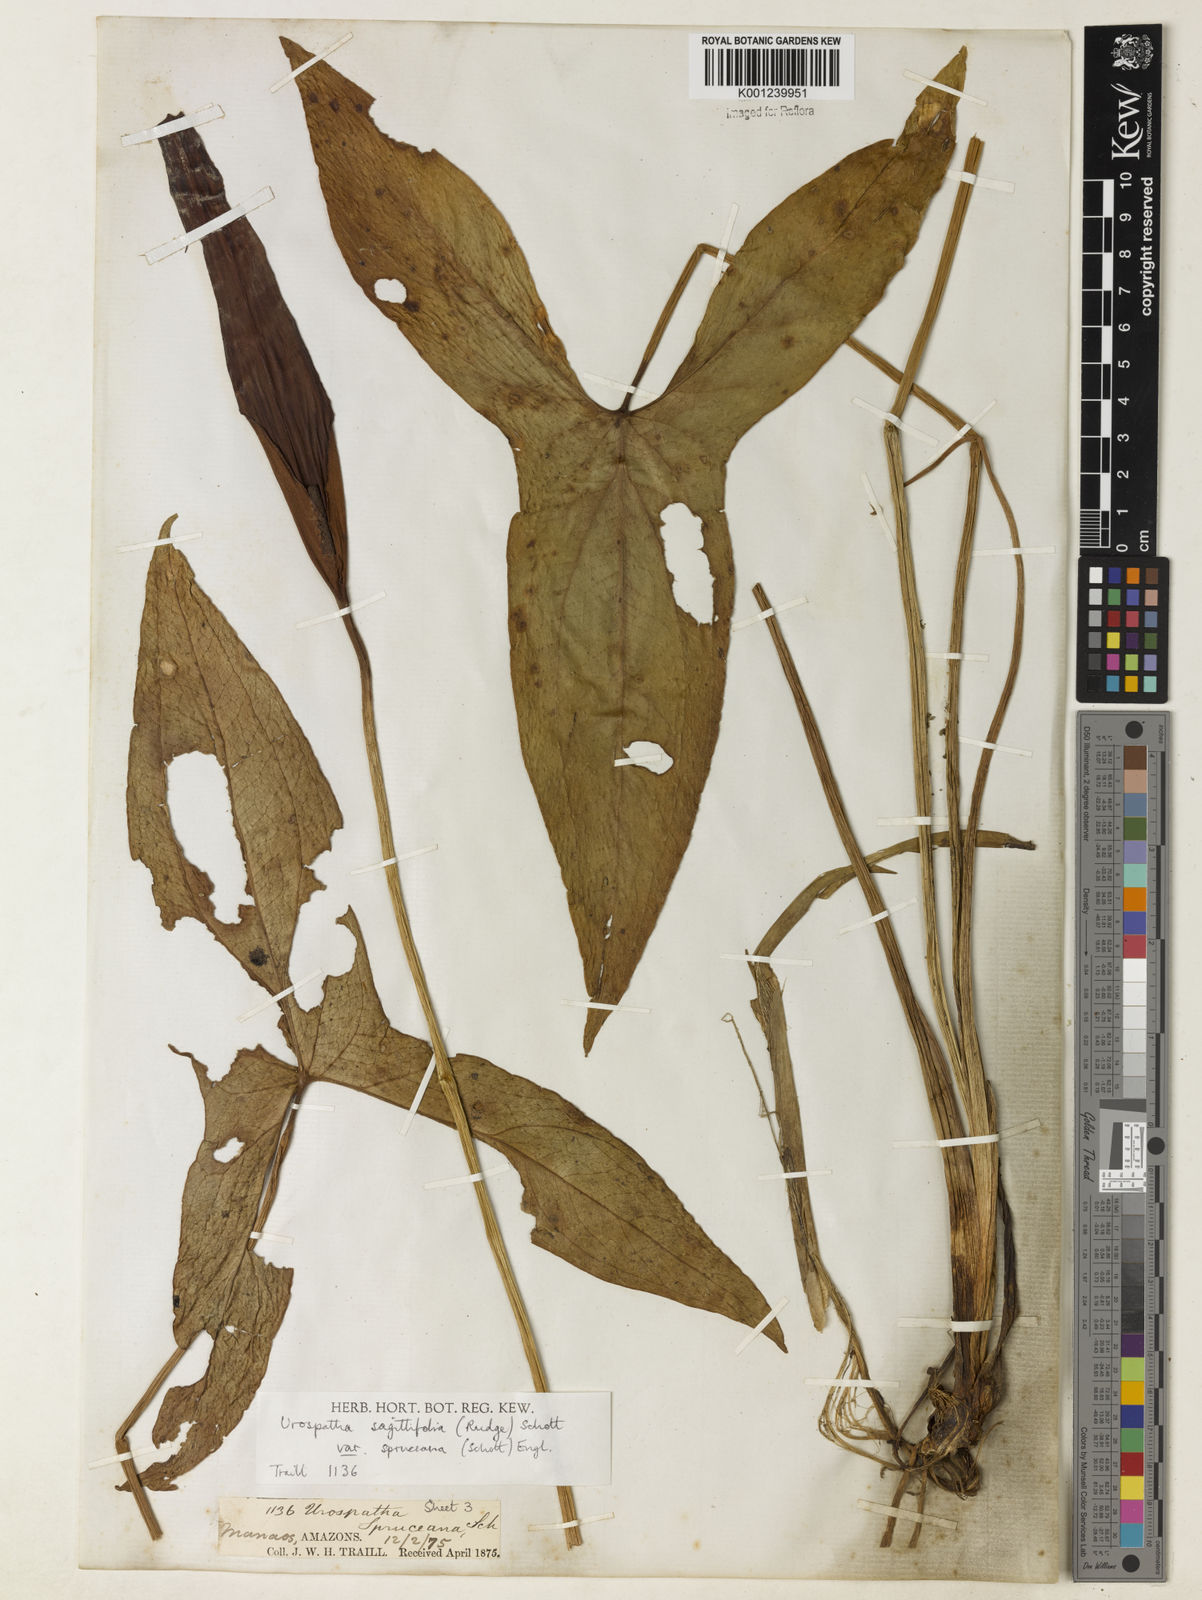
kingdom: Plantae
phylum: Tracheophyta
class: Liliopsida
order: Alismatales
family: Araceae
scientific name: Araceae
